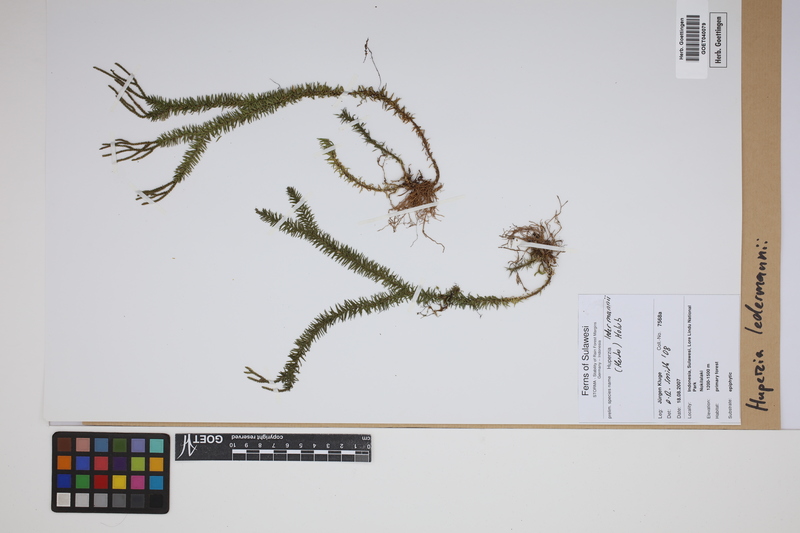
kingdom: Plantae
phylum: Tracheophyta
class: Lycopodiopsida
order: Lycopodiales
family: Lycopodiaceae
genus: Phlegmariurus
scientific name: Phlegmariurus ledermannii
